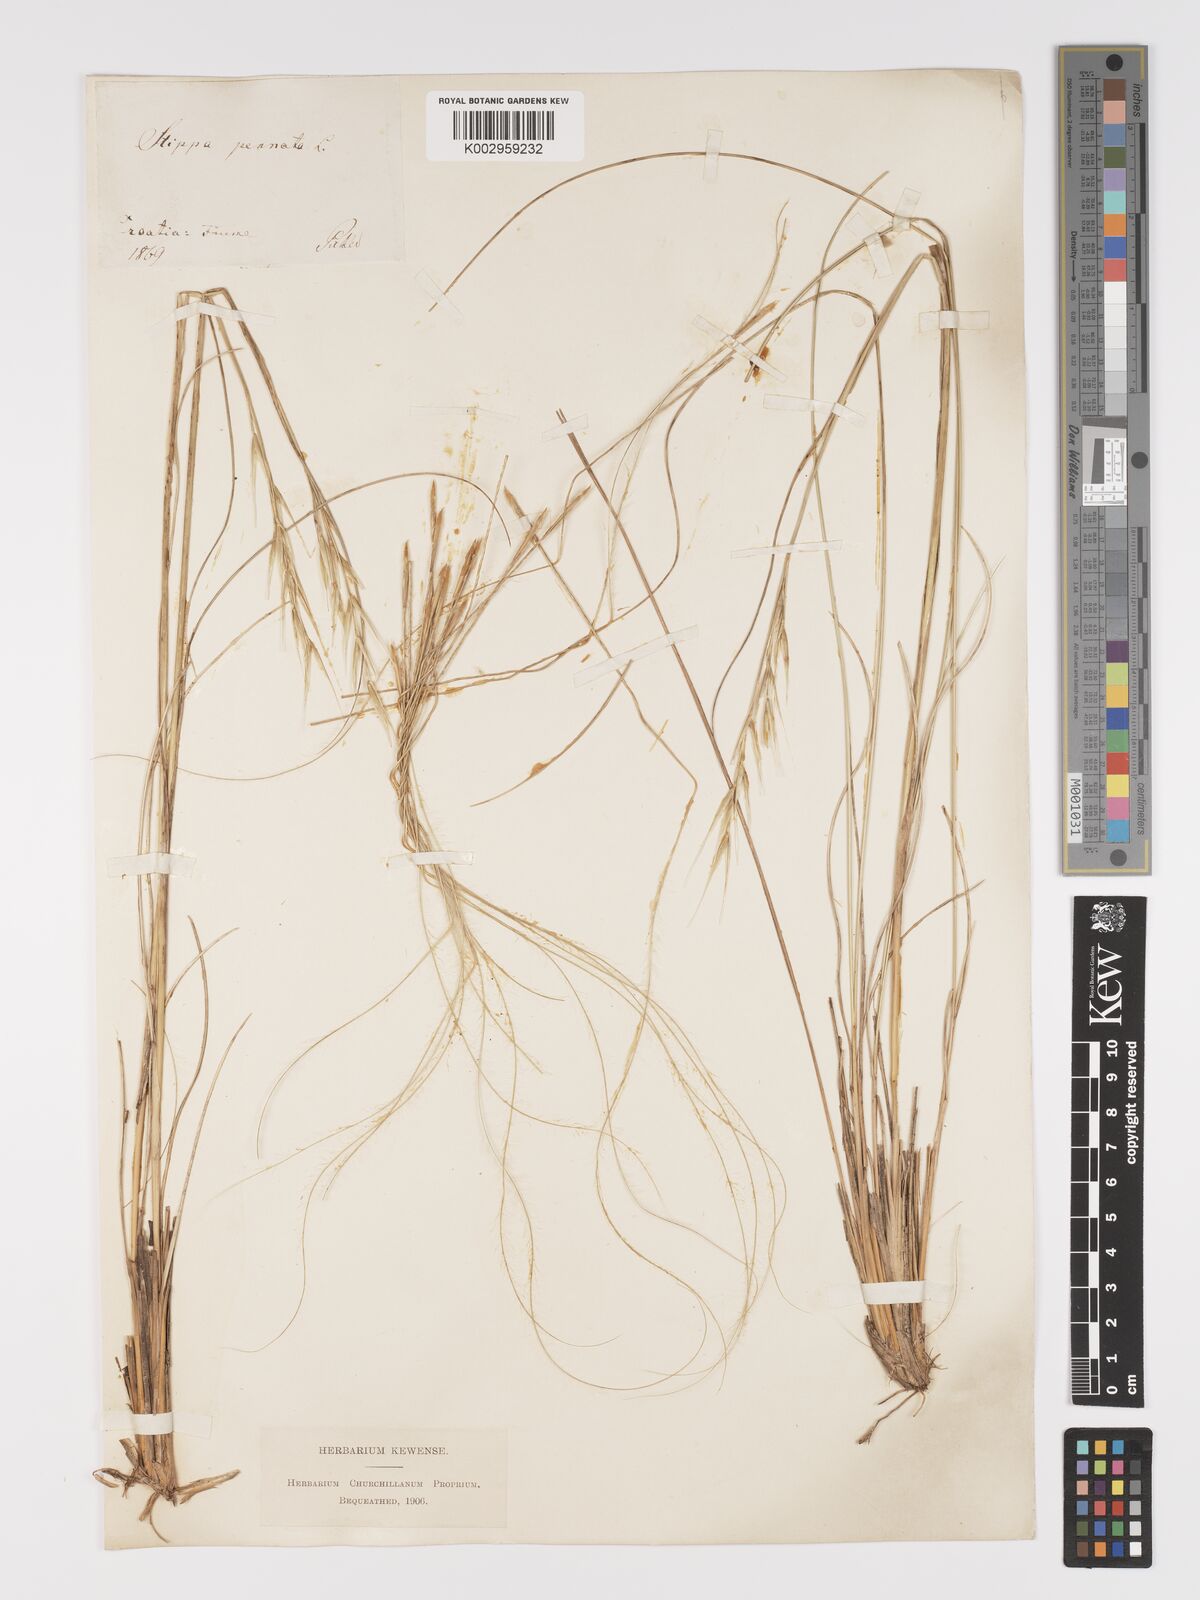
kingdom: Plantae
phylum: Tracheophyta
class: Liliopsida
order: Poales
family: Poaceae
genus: Stipa
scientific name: Stipa pennata
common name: European feather grass
